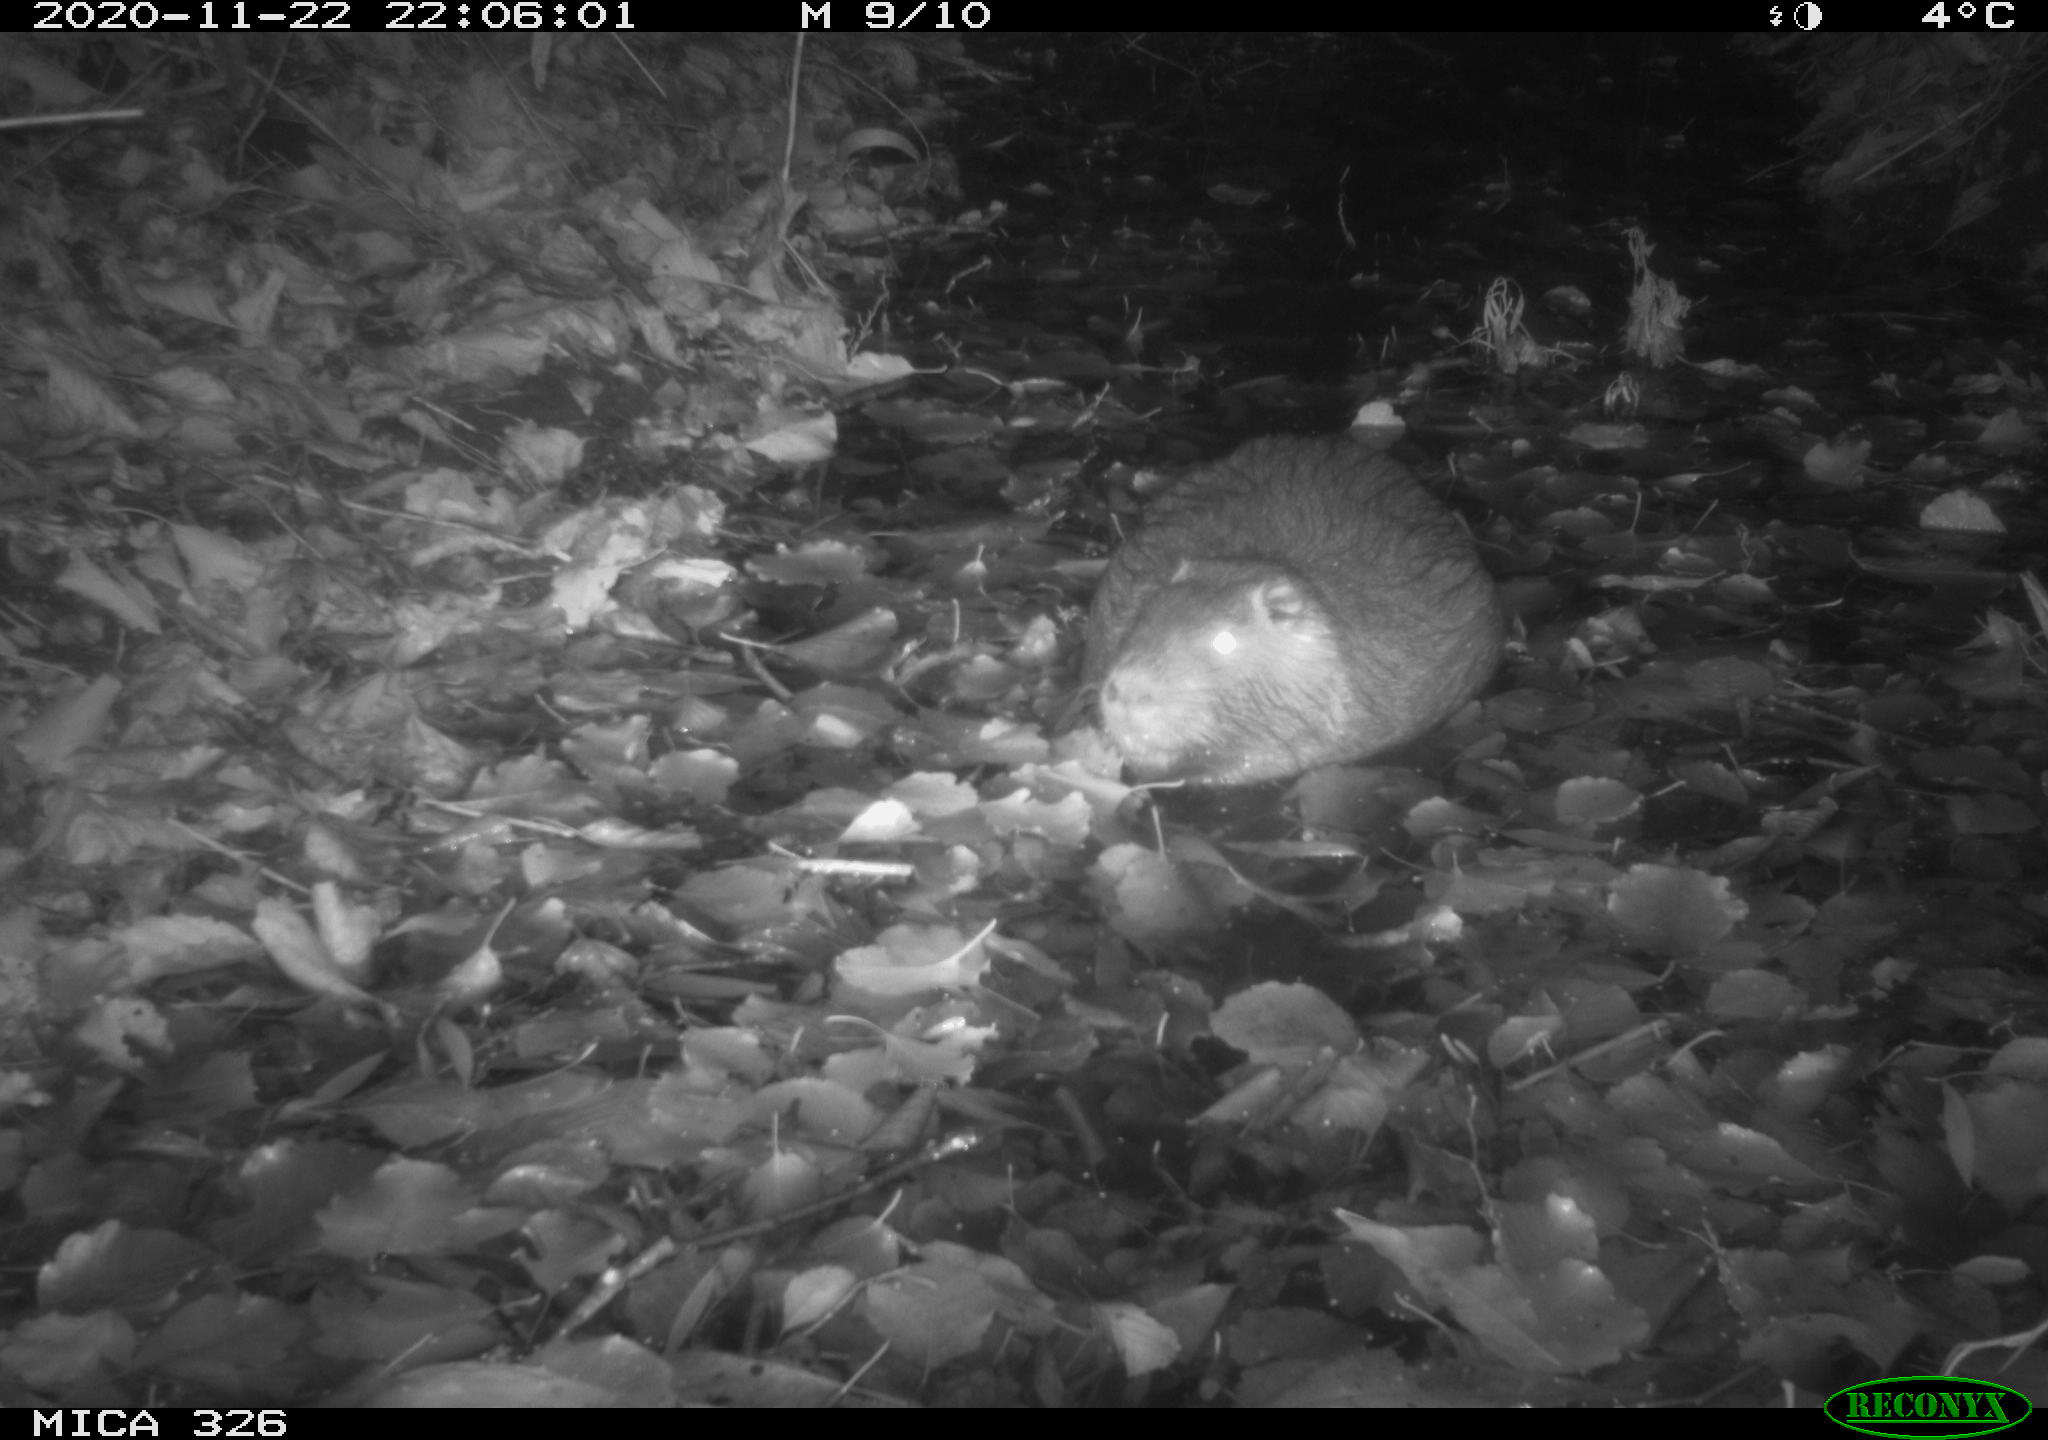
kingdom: Animalia
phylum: Chordata
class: Mammalia
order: Rodentia
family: Myocastoridae
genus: Myocastor
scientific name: Myocastor coypus
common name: Coypu
